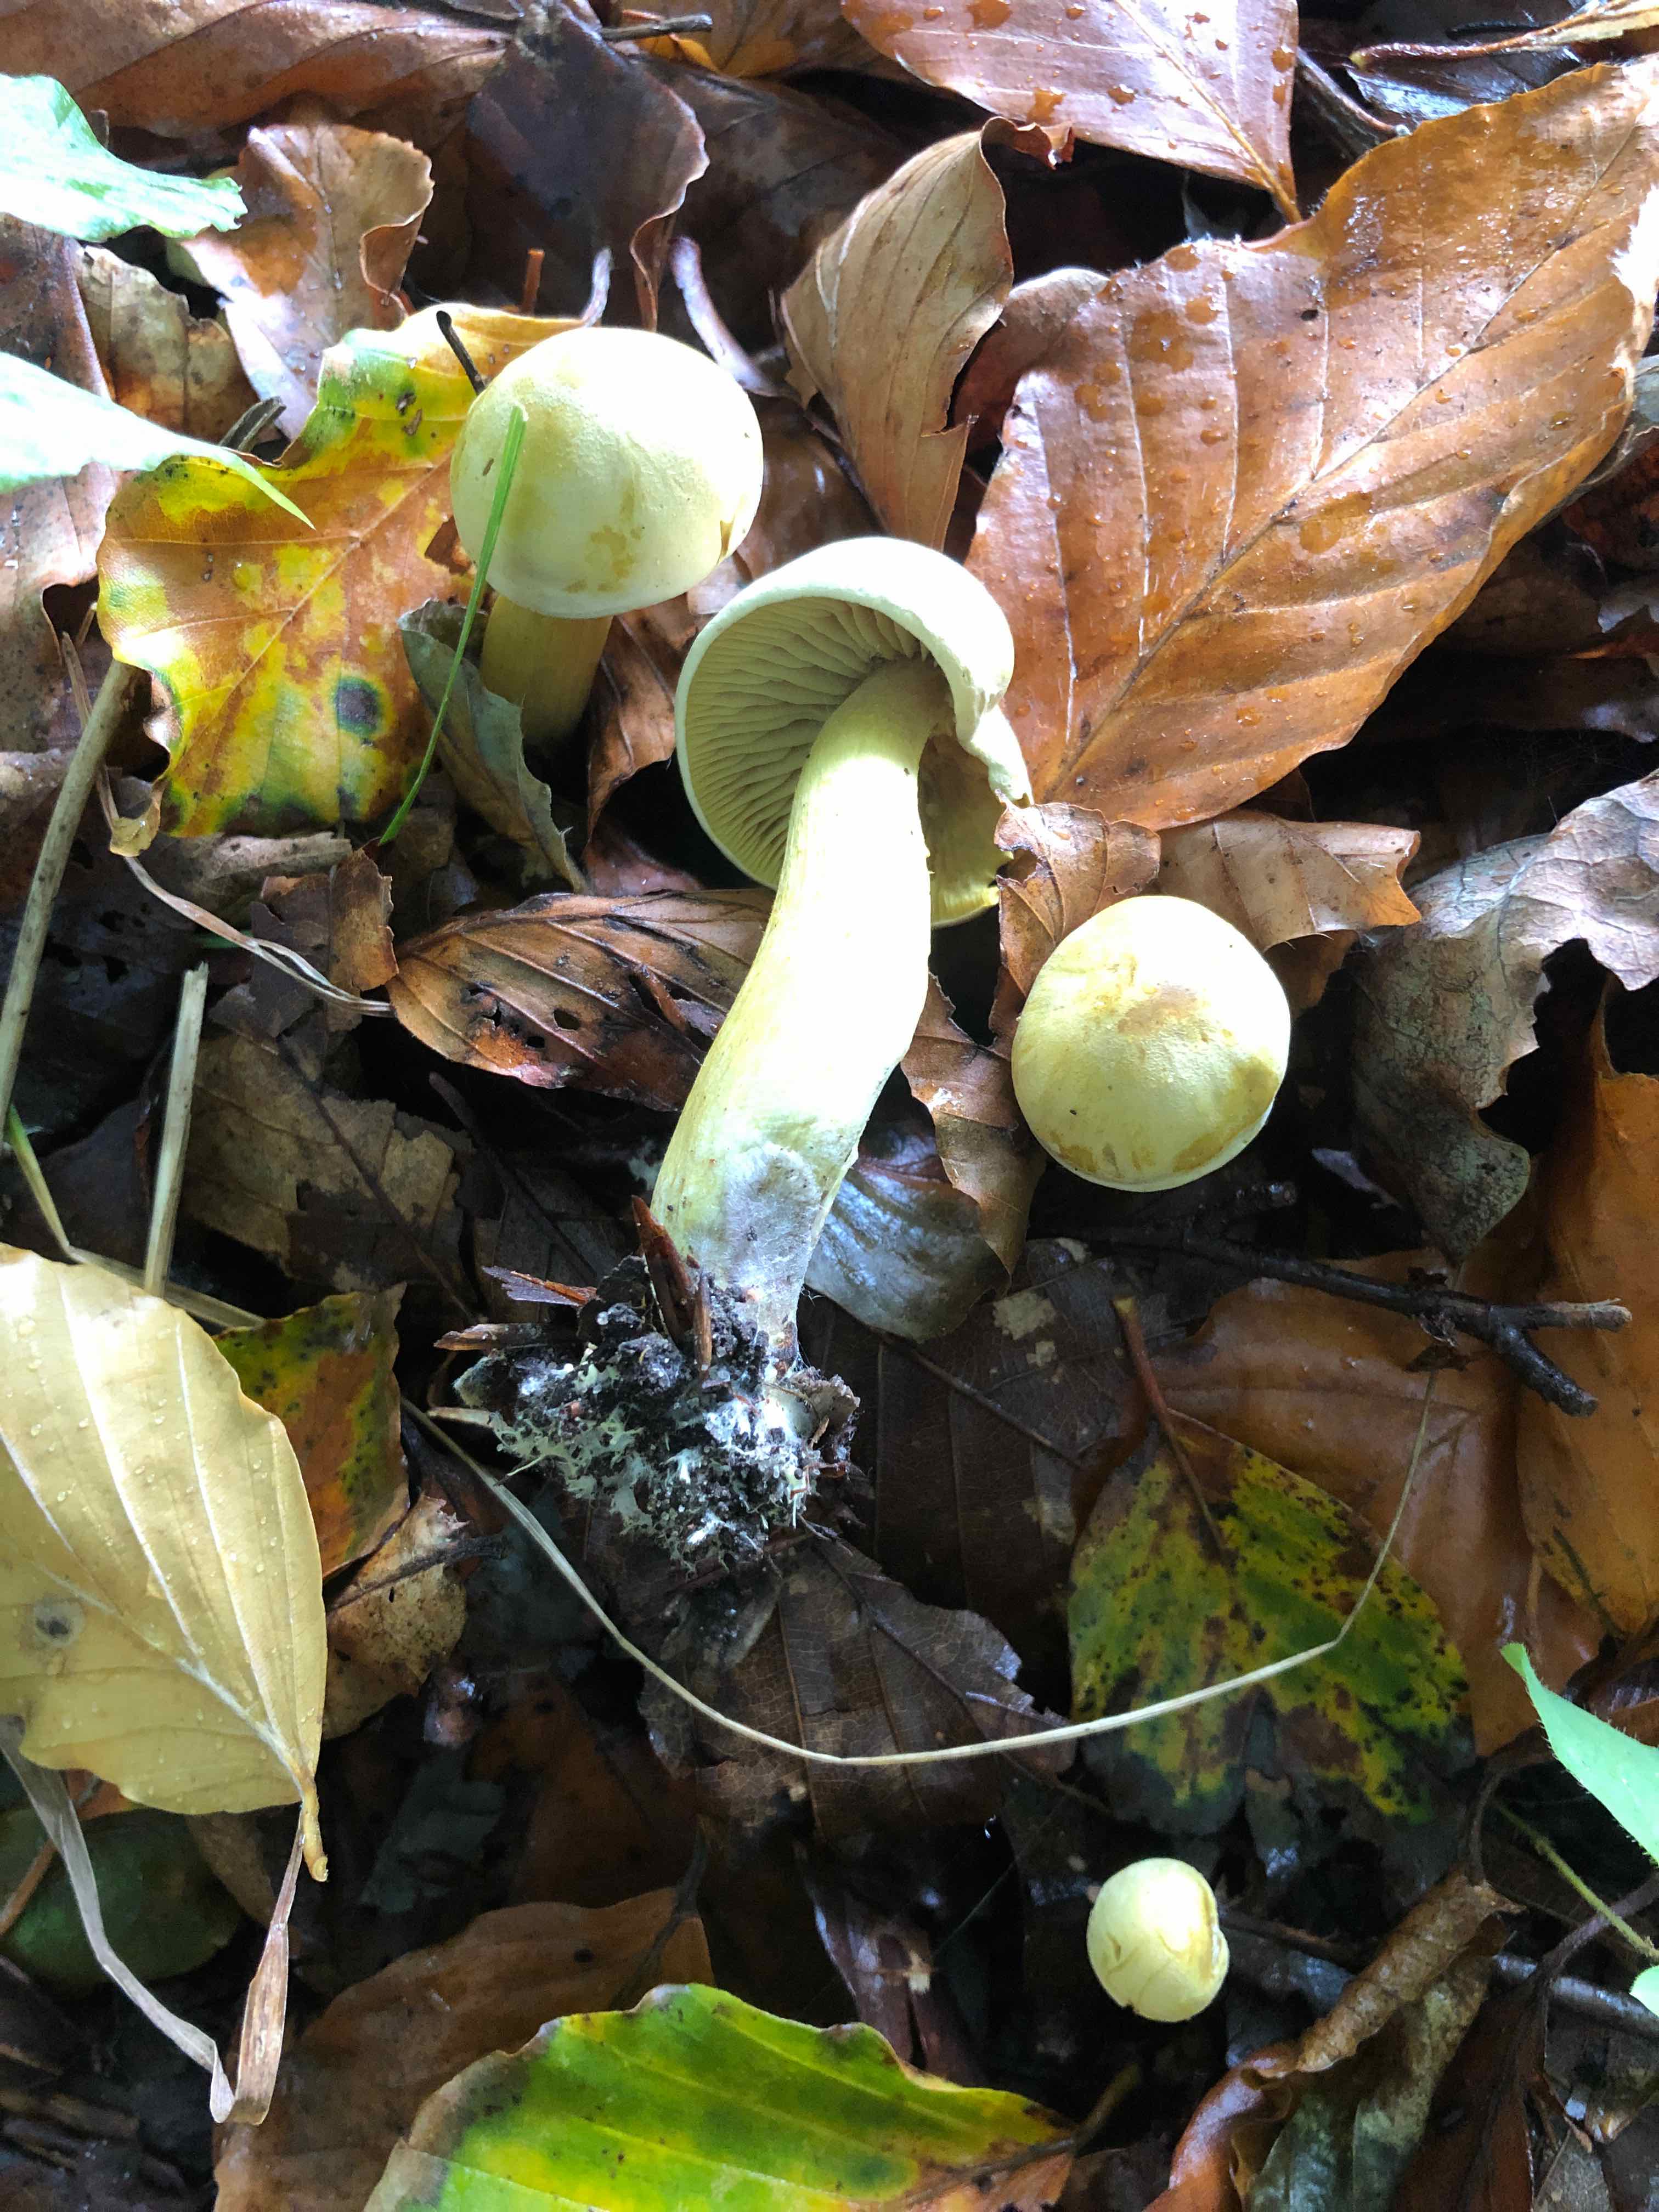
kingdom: Fungi
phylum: Basidiomycota
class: Agaricomycetes
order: Agaricales
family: Tricholomataceae
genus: Tricholoma
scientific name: Tricholoma sulphureum
